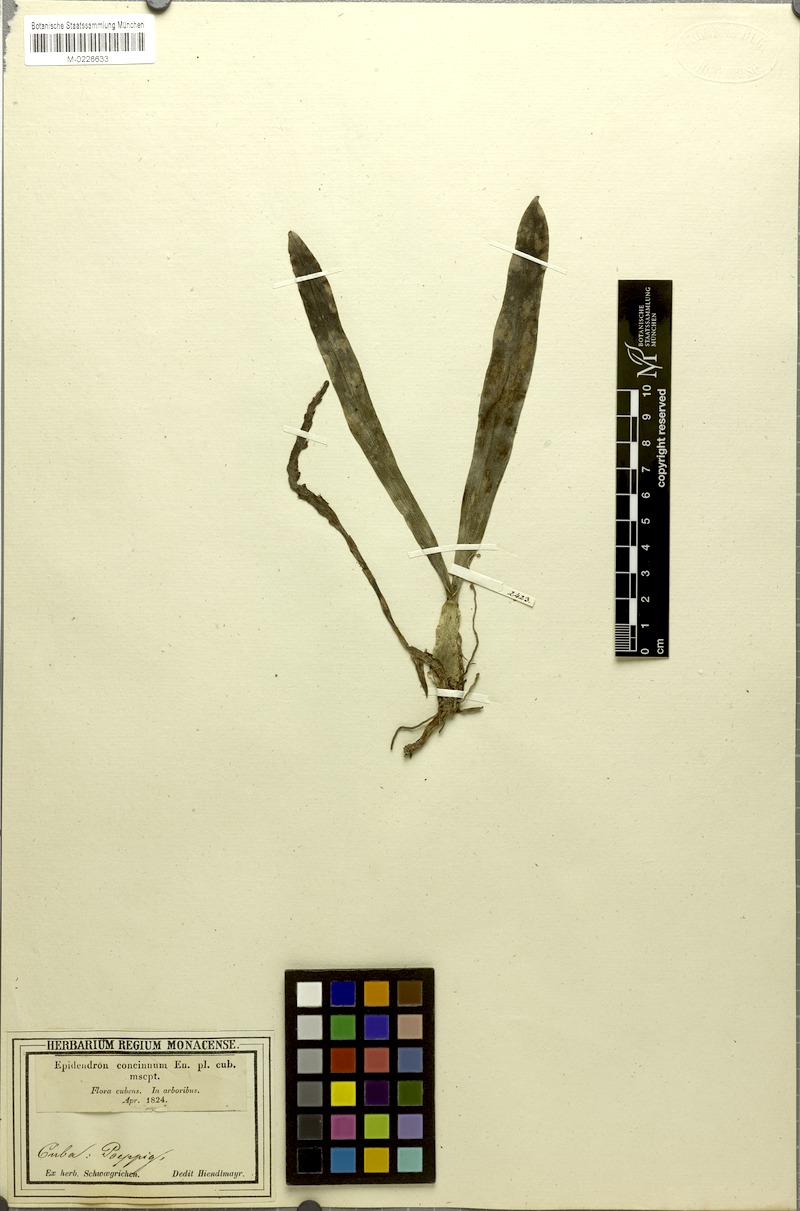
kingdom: Plantae
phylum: Tracheophyta
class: Liliopsida
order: Asparagales
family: Orchidaceae
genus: Epidendrum
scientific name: Epidendrum concinnum
